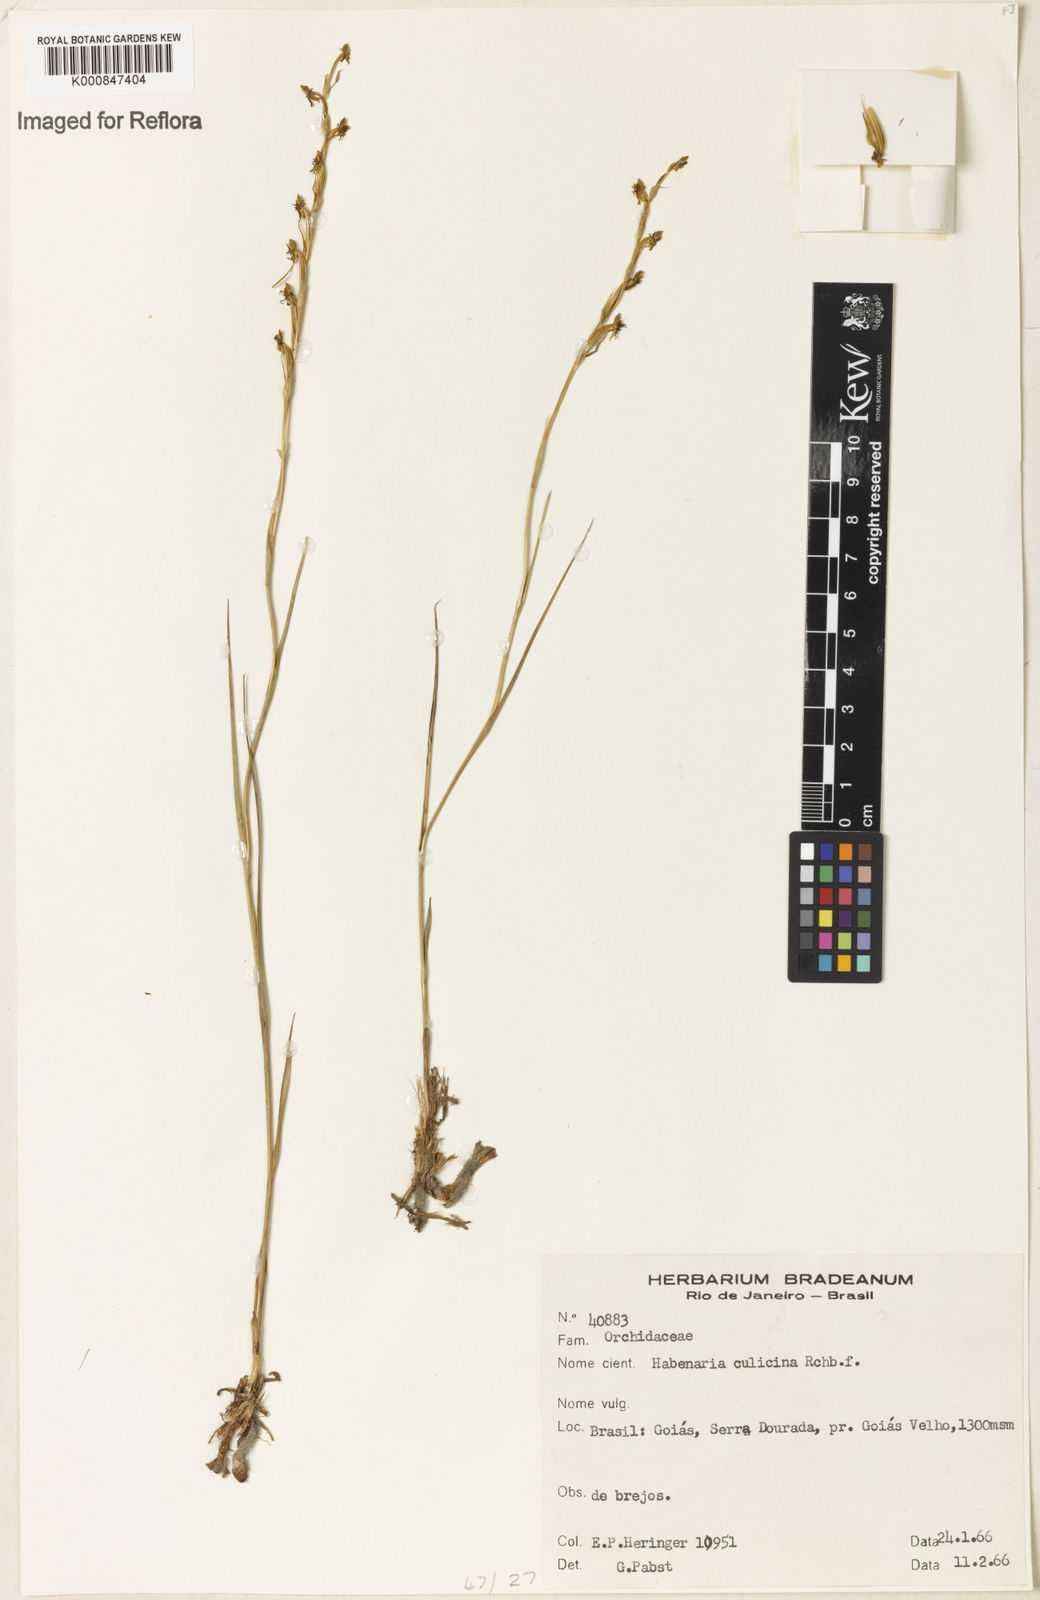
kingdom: Plantae
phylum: Tracheophyta
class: Liliopsida
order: Asparagales
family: Orchidaceae
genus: Habenaria
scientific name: Habenaria culicina
